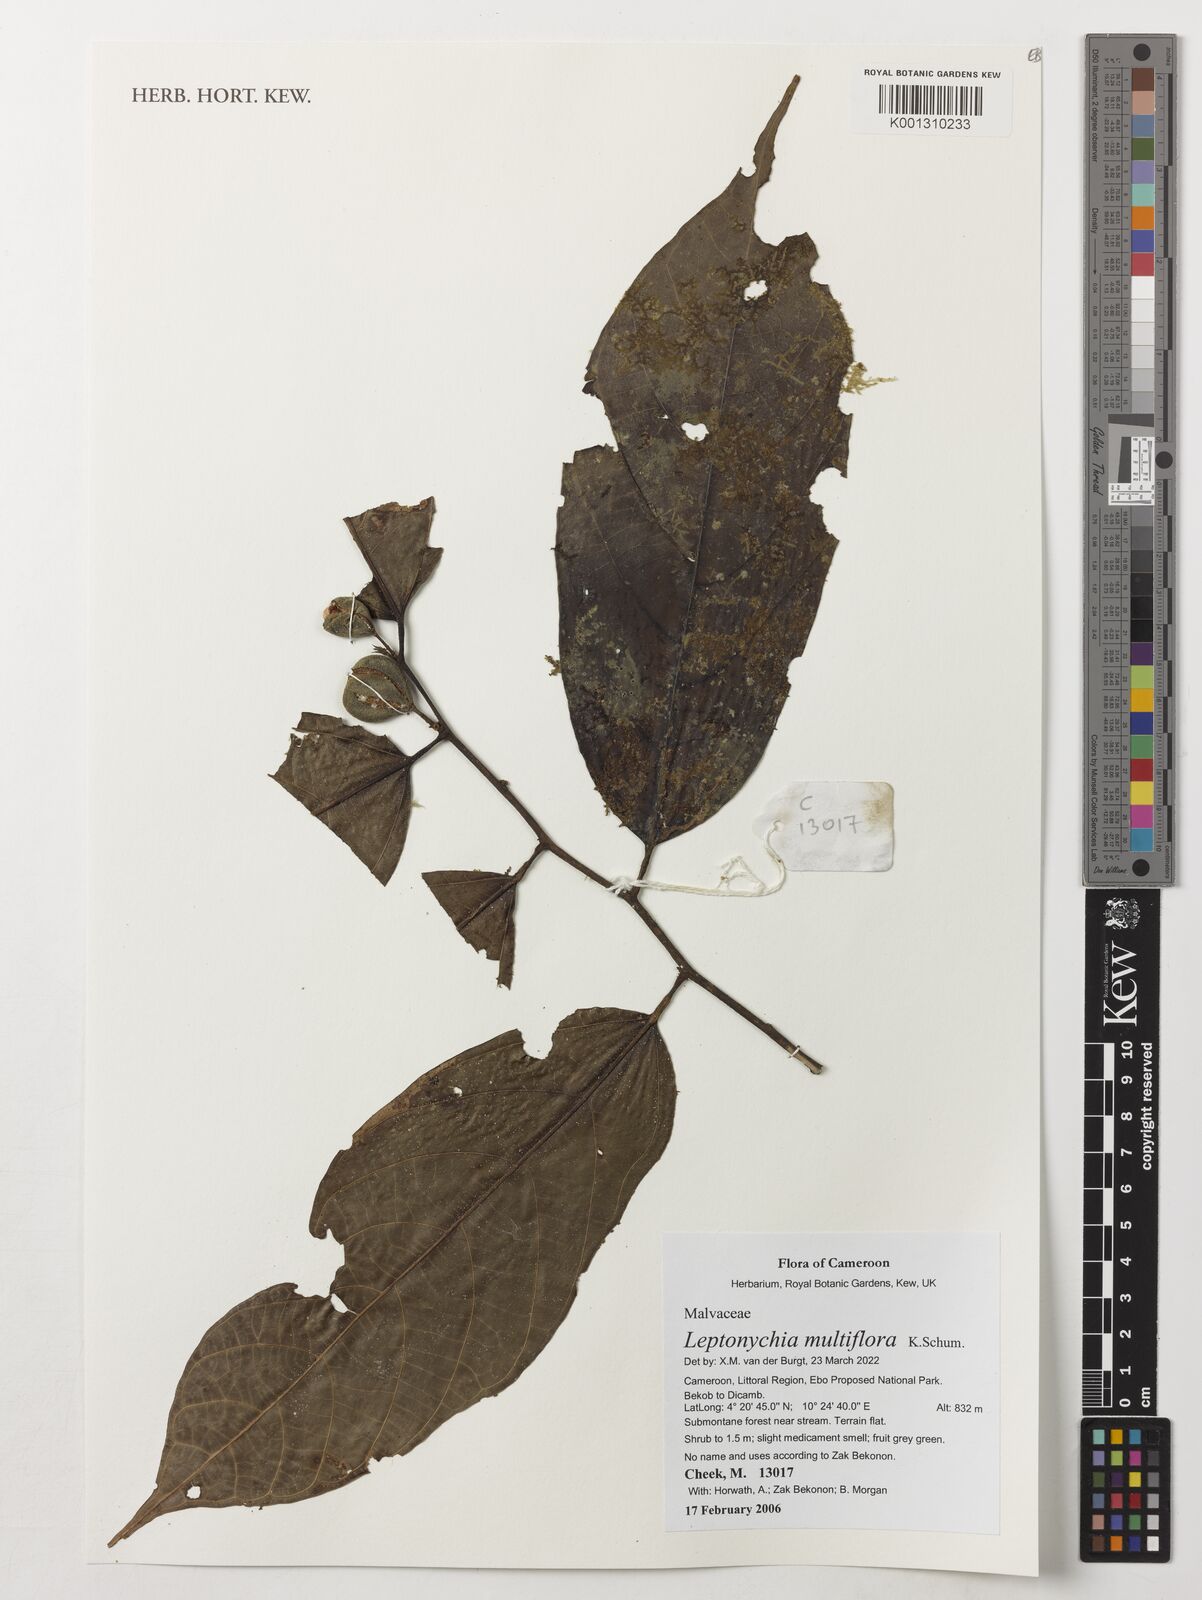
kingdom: Plantae
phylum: Tracheophyta
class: Magnoliopsida
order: Malvales
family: Malvaceae
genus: Leptonychia
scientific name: Leptonychia multiflora
